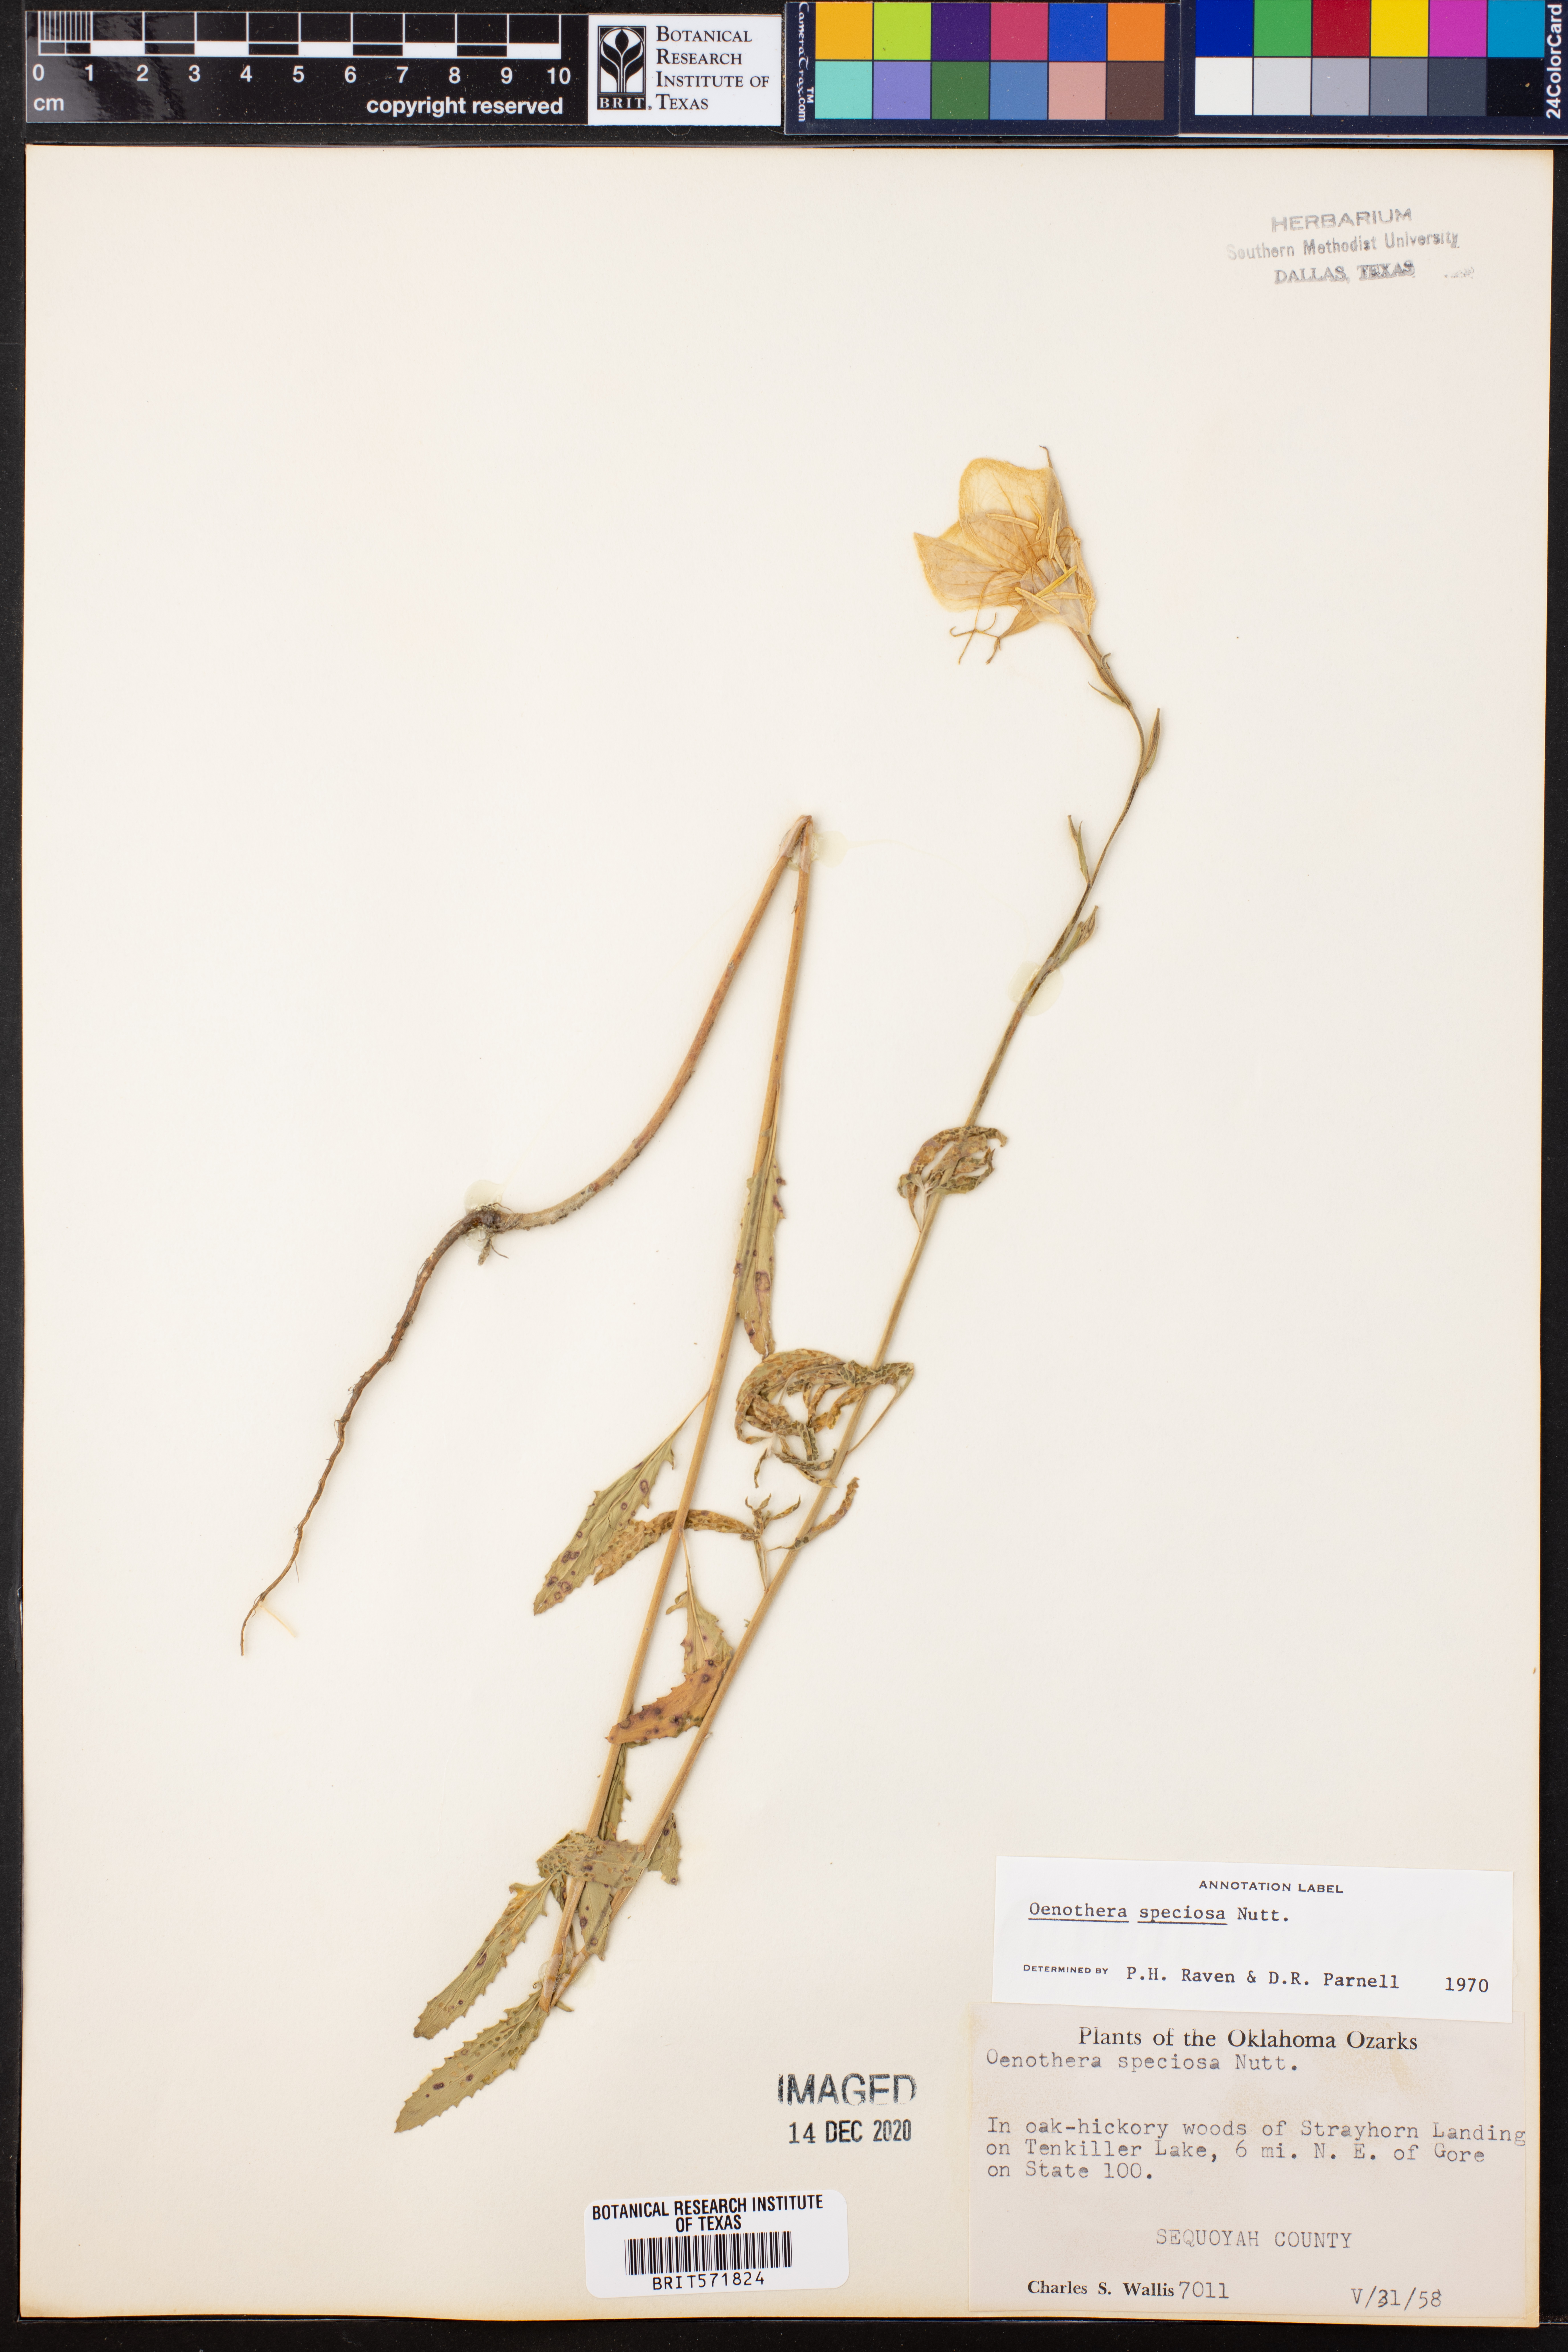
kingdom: Plantae
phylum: Tracheophyta
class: Magnoliopsida
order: Myrtales
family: Onagraceae
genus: Oenothera
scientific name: Oenothera speciosa
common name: White evening-primrose
